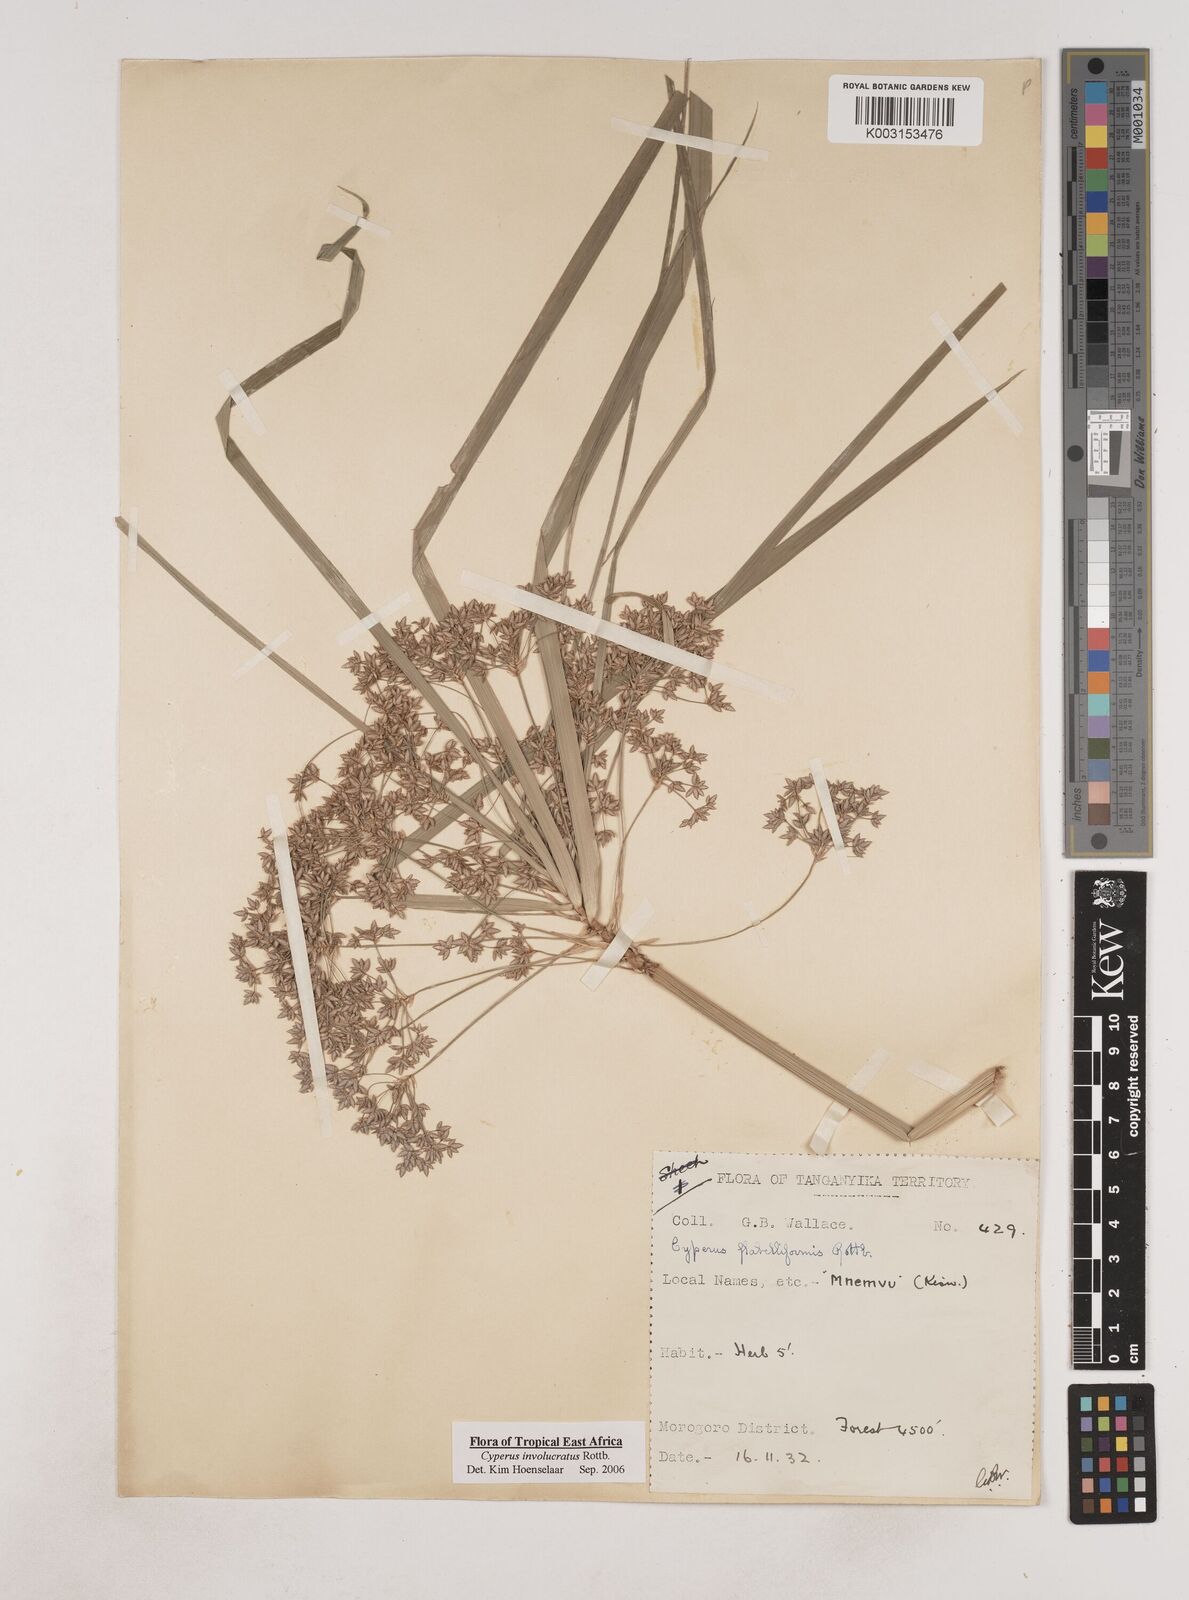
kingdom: Plantae
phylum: Tracheophyta
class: Liliopsida
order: Poales
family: Cyperaceae
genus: Cyperus
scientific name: Cyperus alternifolius
